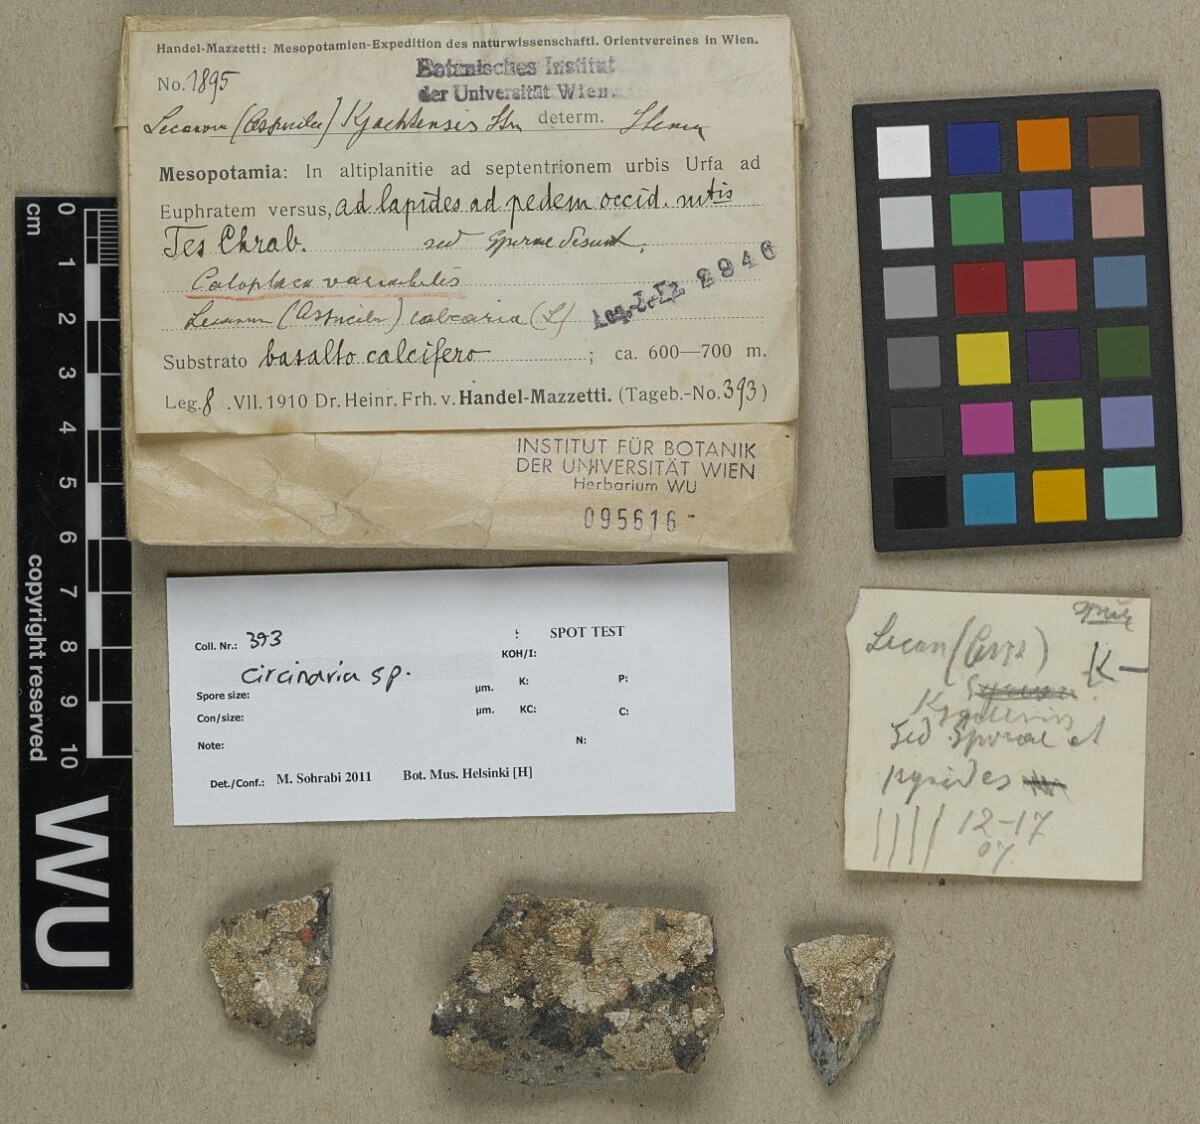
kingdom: Fungi
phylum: Ascomycota
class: Lecanoromycetes
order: Pertusariales
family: Megasporaceae
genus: Circinaria
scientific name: Circinaria
